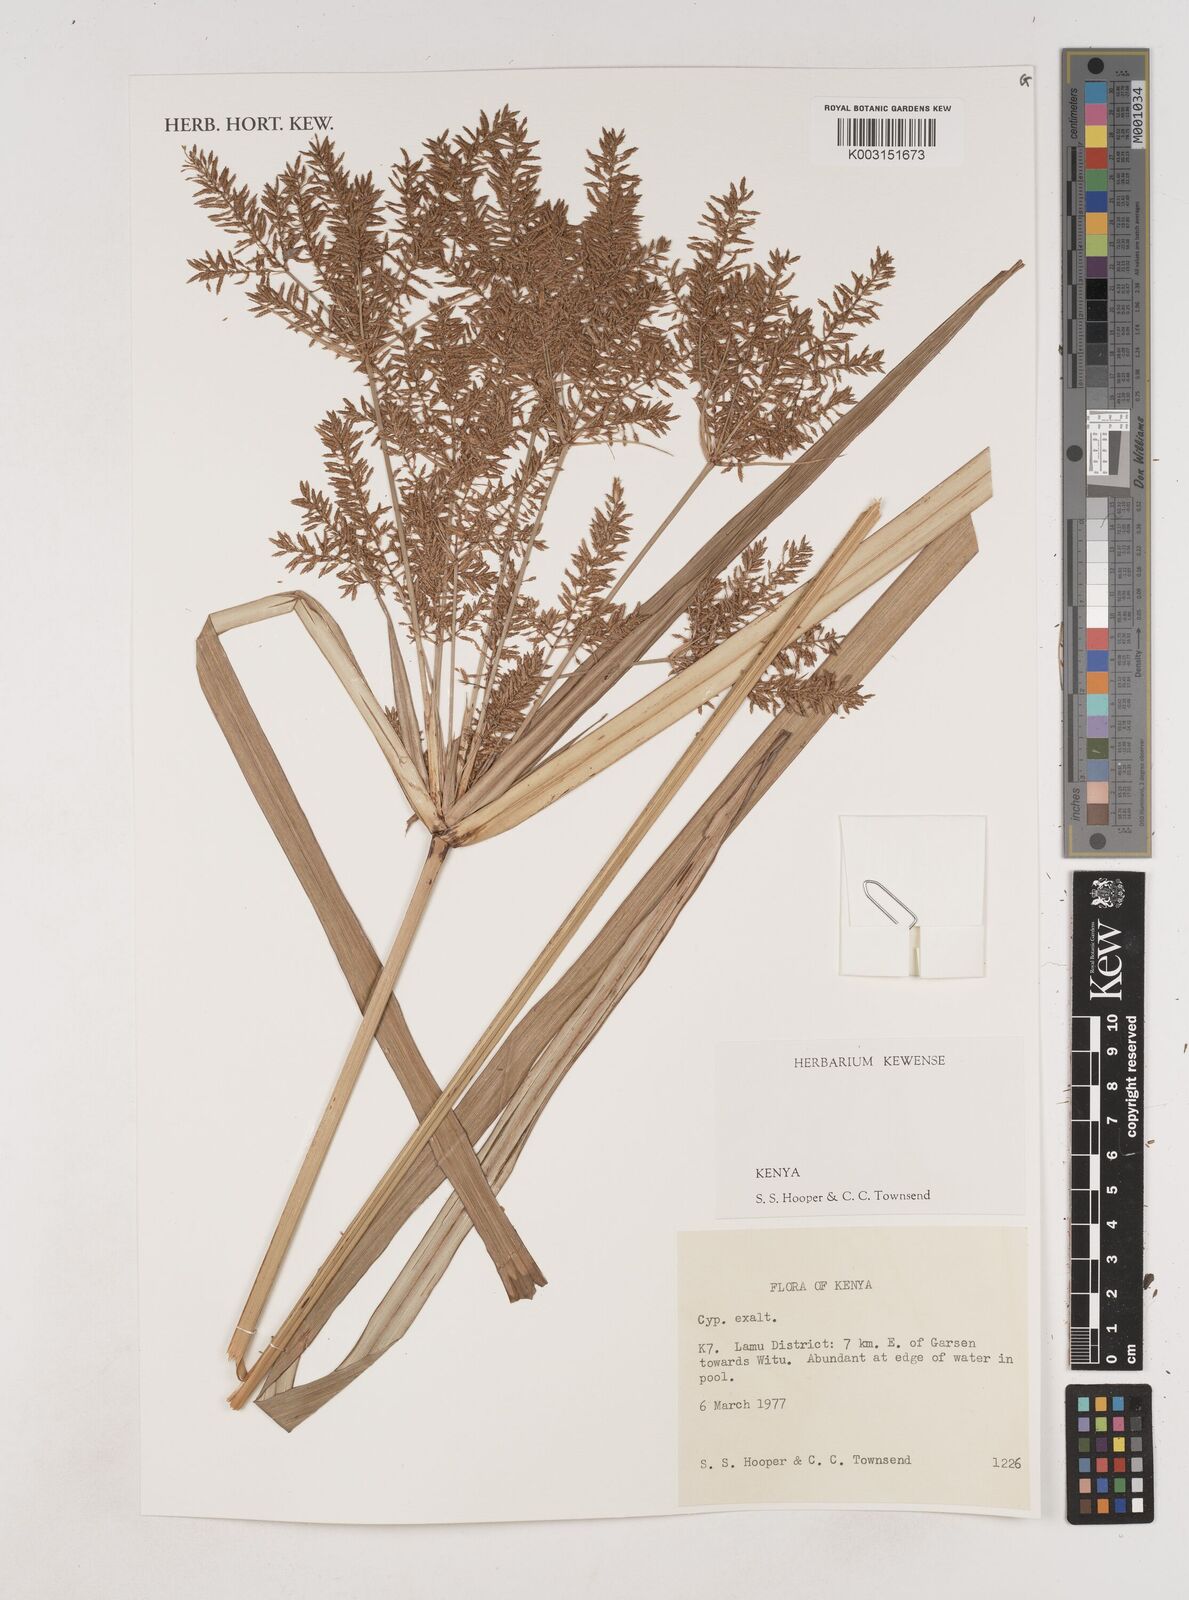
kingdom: Plantae
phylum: Tracheophyta
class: Liliopsida
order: Poales
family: Cyperaceae
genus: Cyperus
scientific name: Cyperus exaltatus
